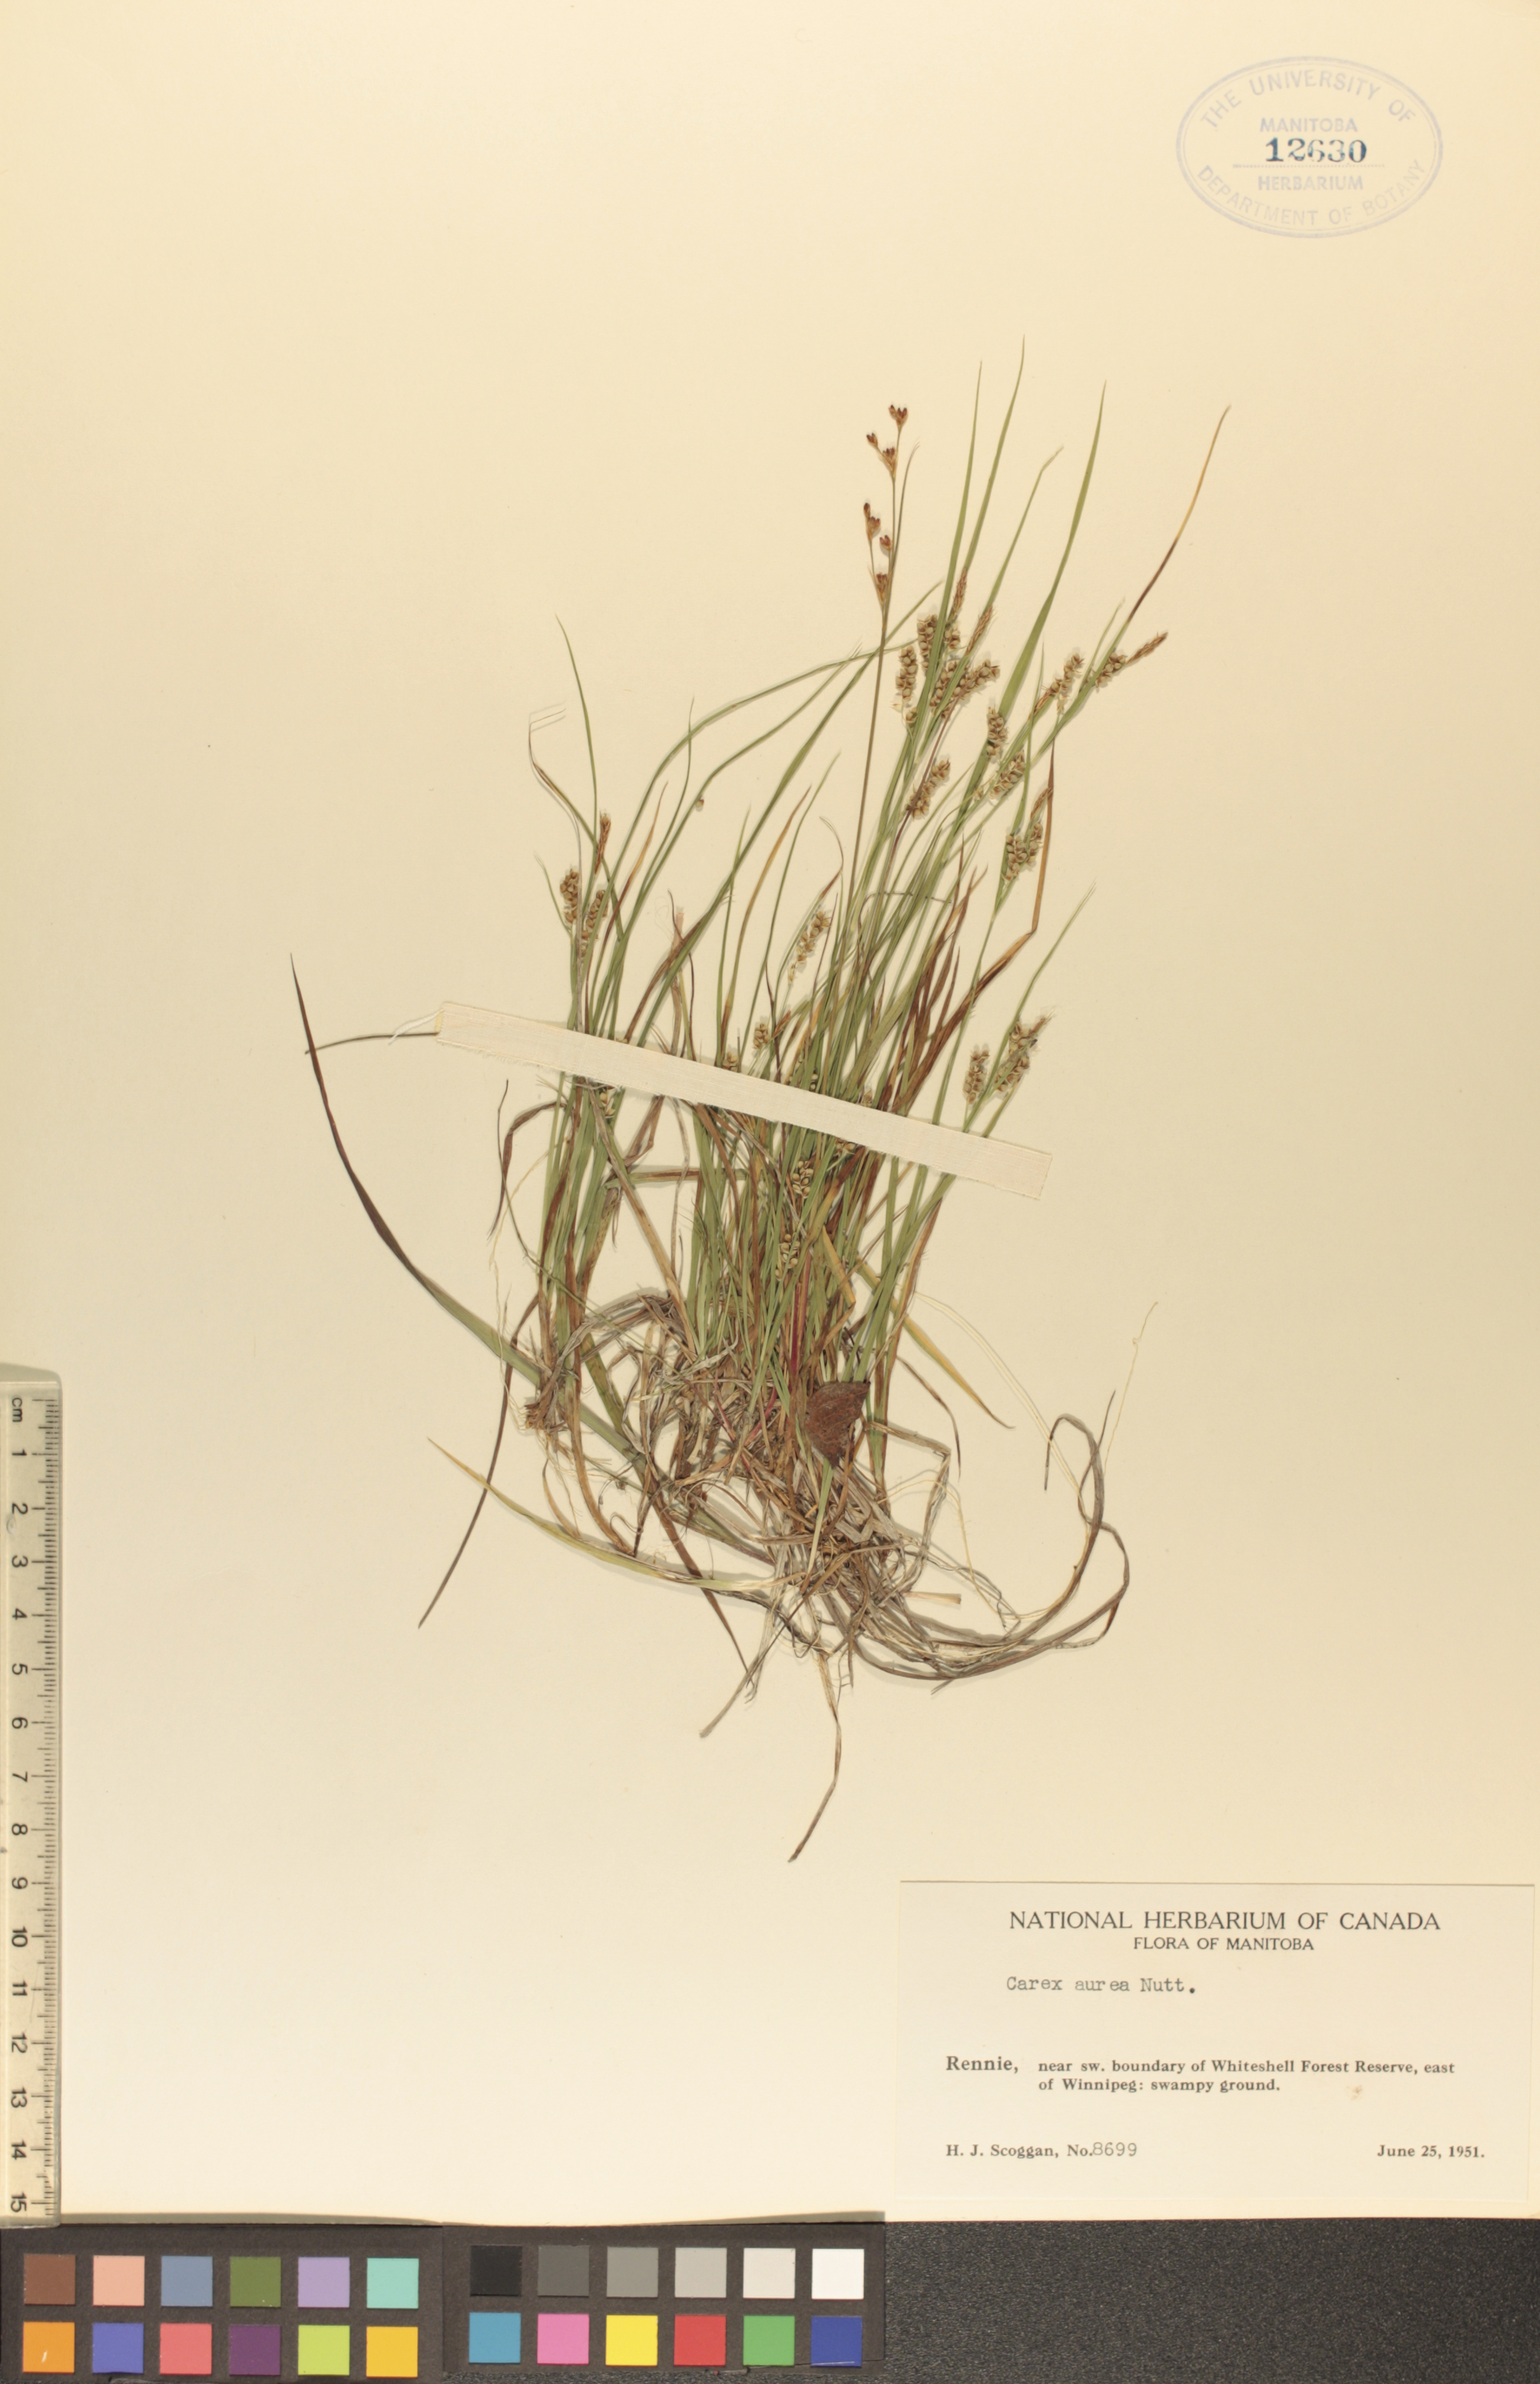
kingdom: Plantae
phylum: Tracheophyta
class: Liliopsida
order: Poales
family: Cyperaceae
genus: Carex
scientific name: Carex aurea
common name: Golden sedge
